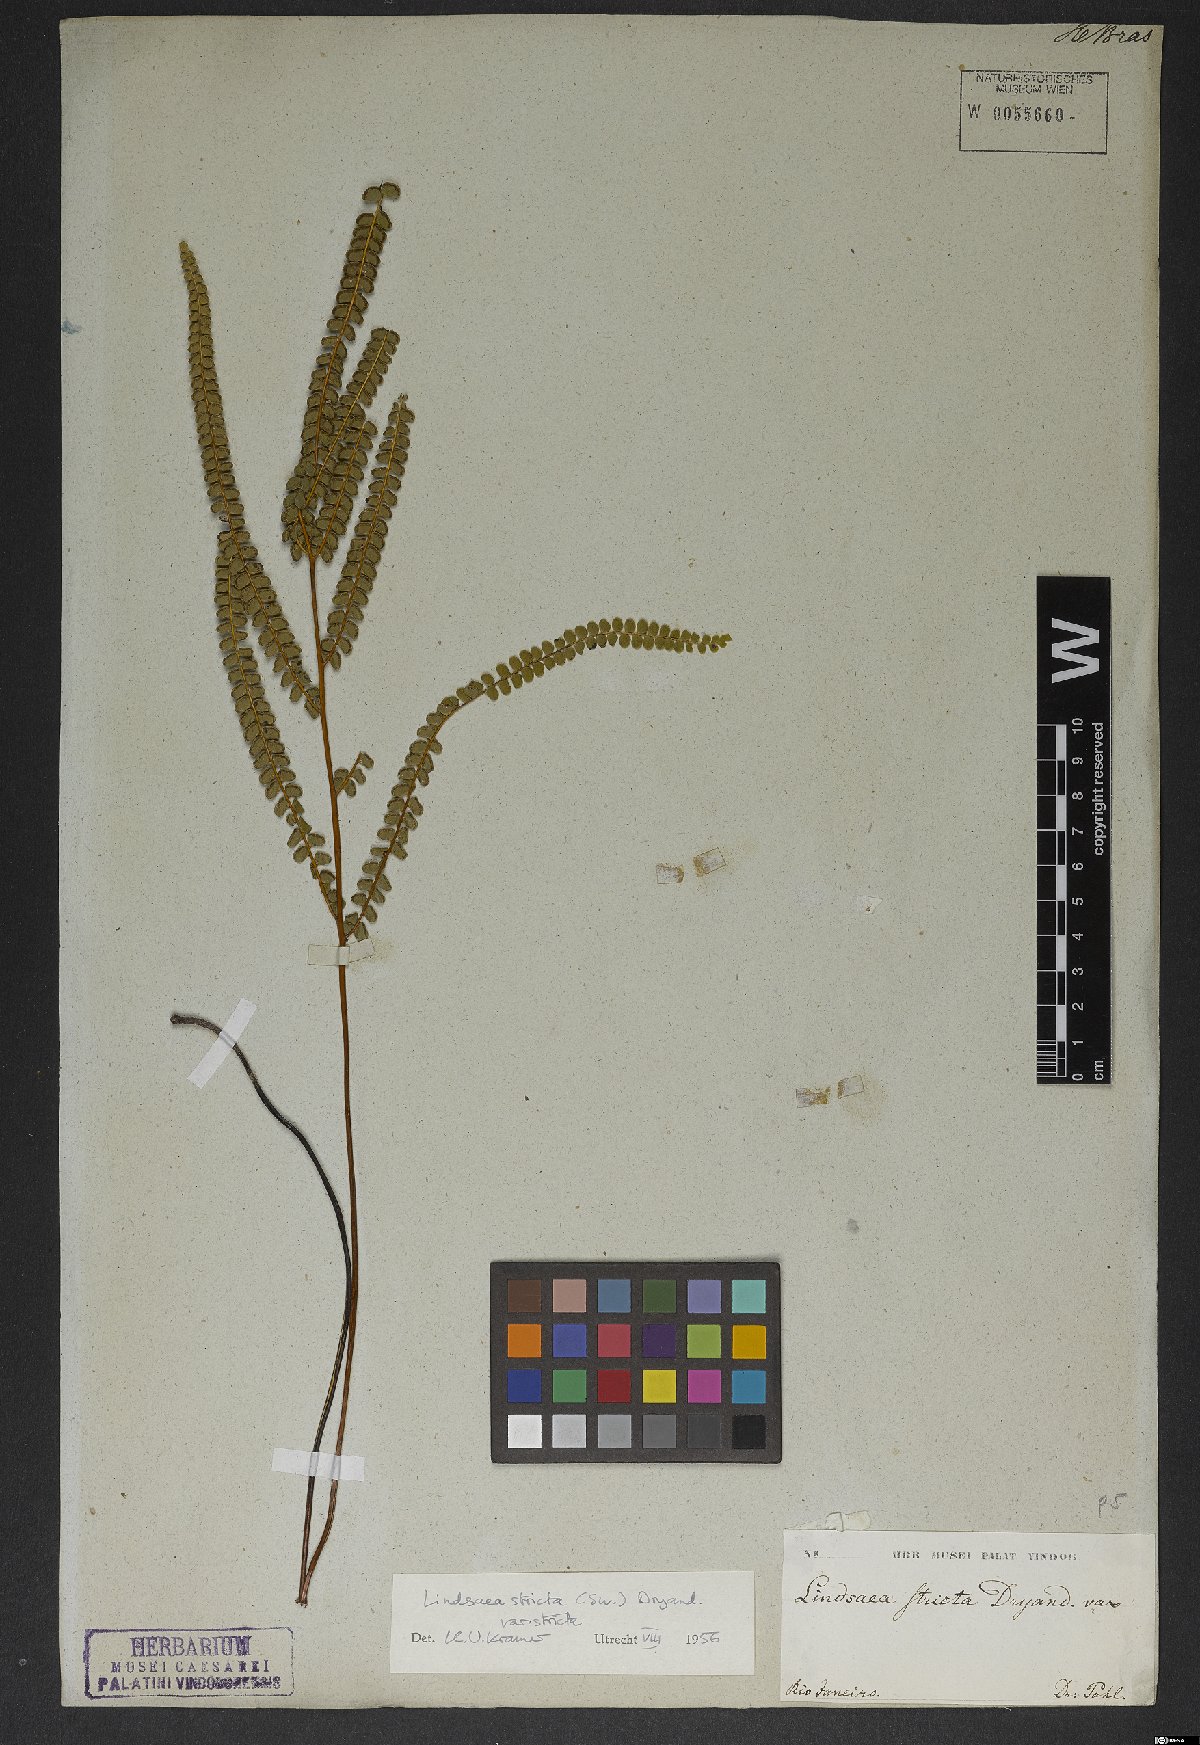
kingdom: Plantae
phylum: Tracheophyta
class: Polypodiopsida
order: Polypodiales
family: Lindsaeaceae
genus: Lindsaea
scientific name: Lindsaea stricta
